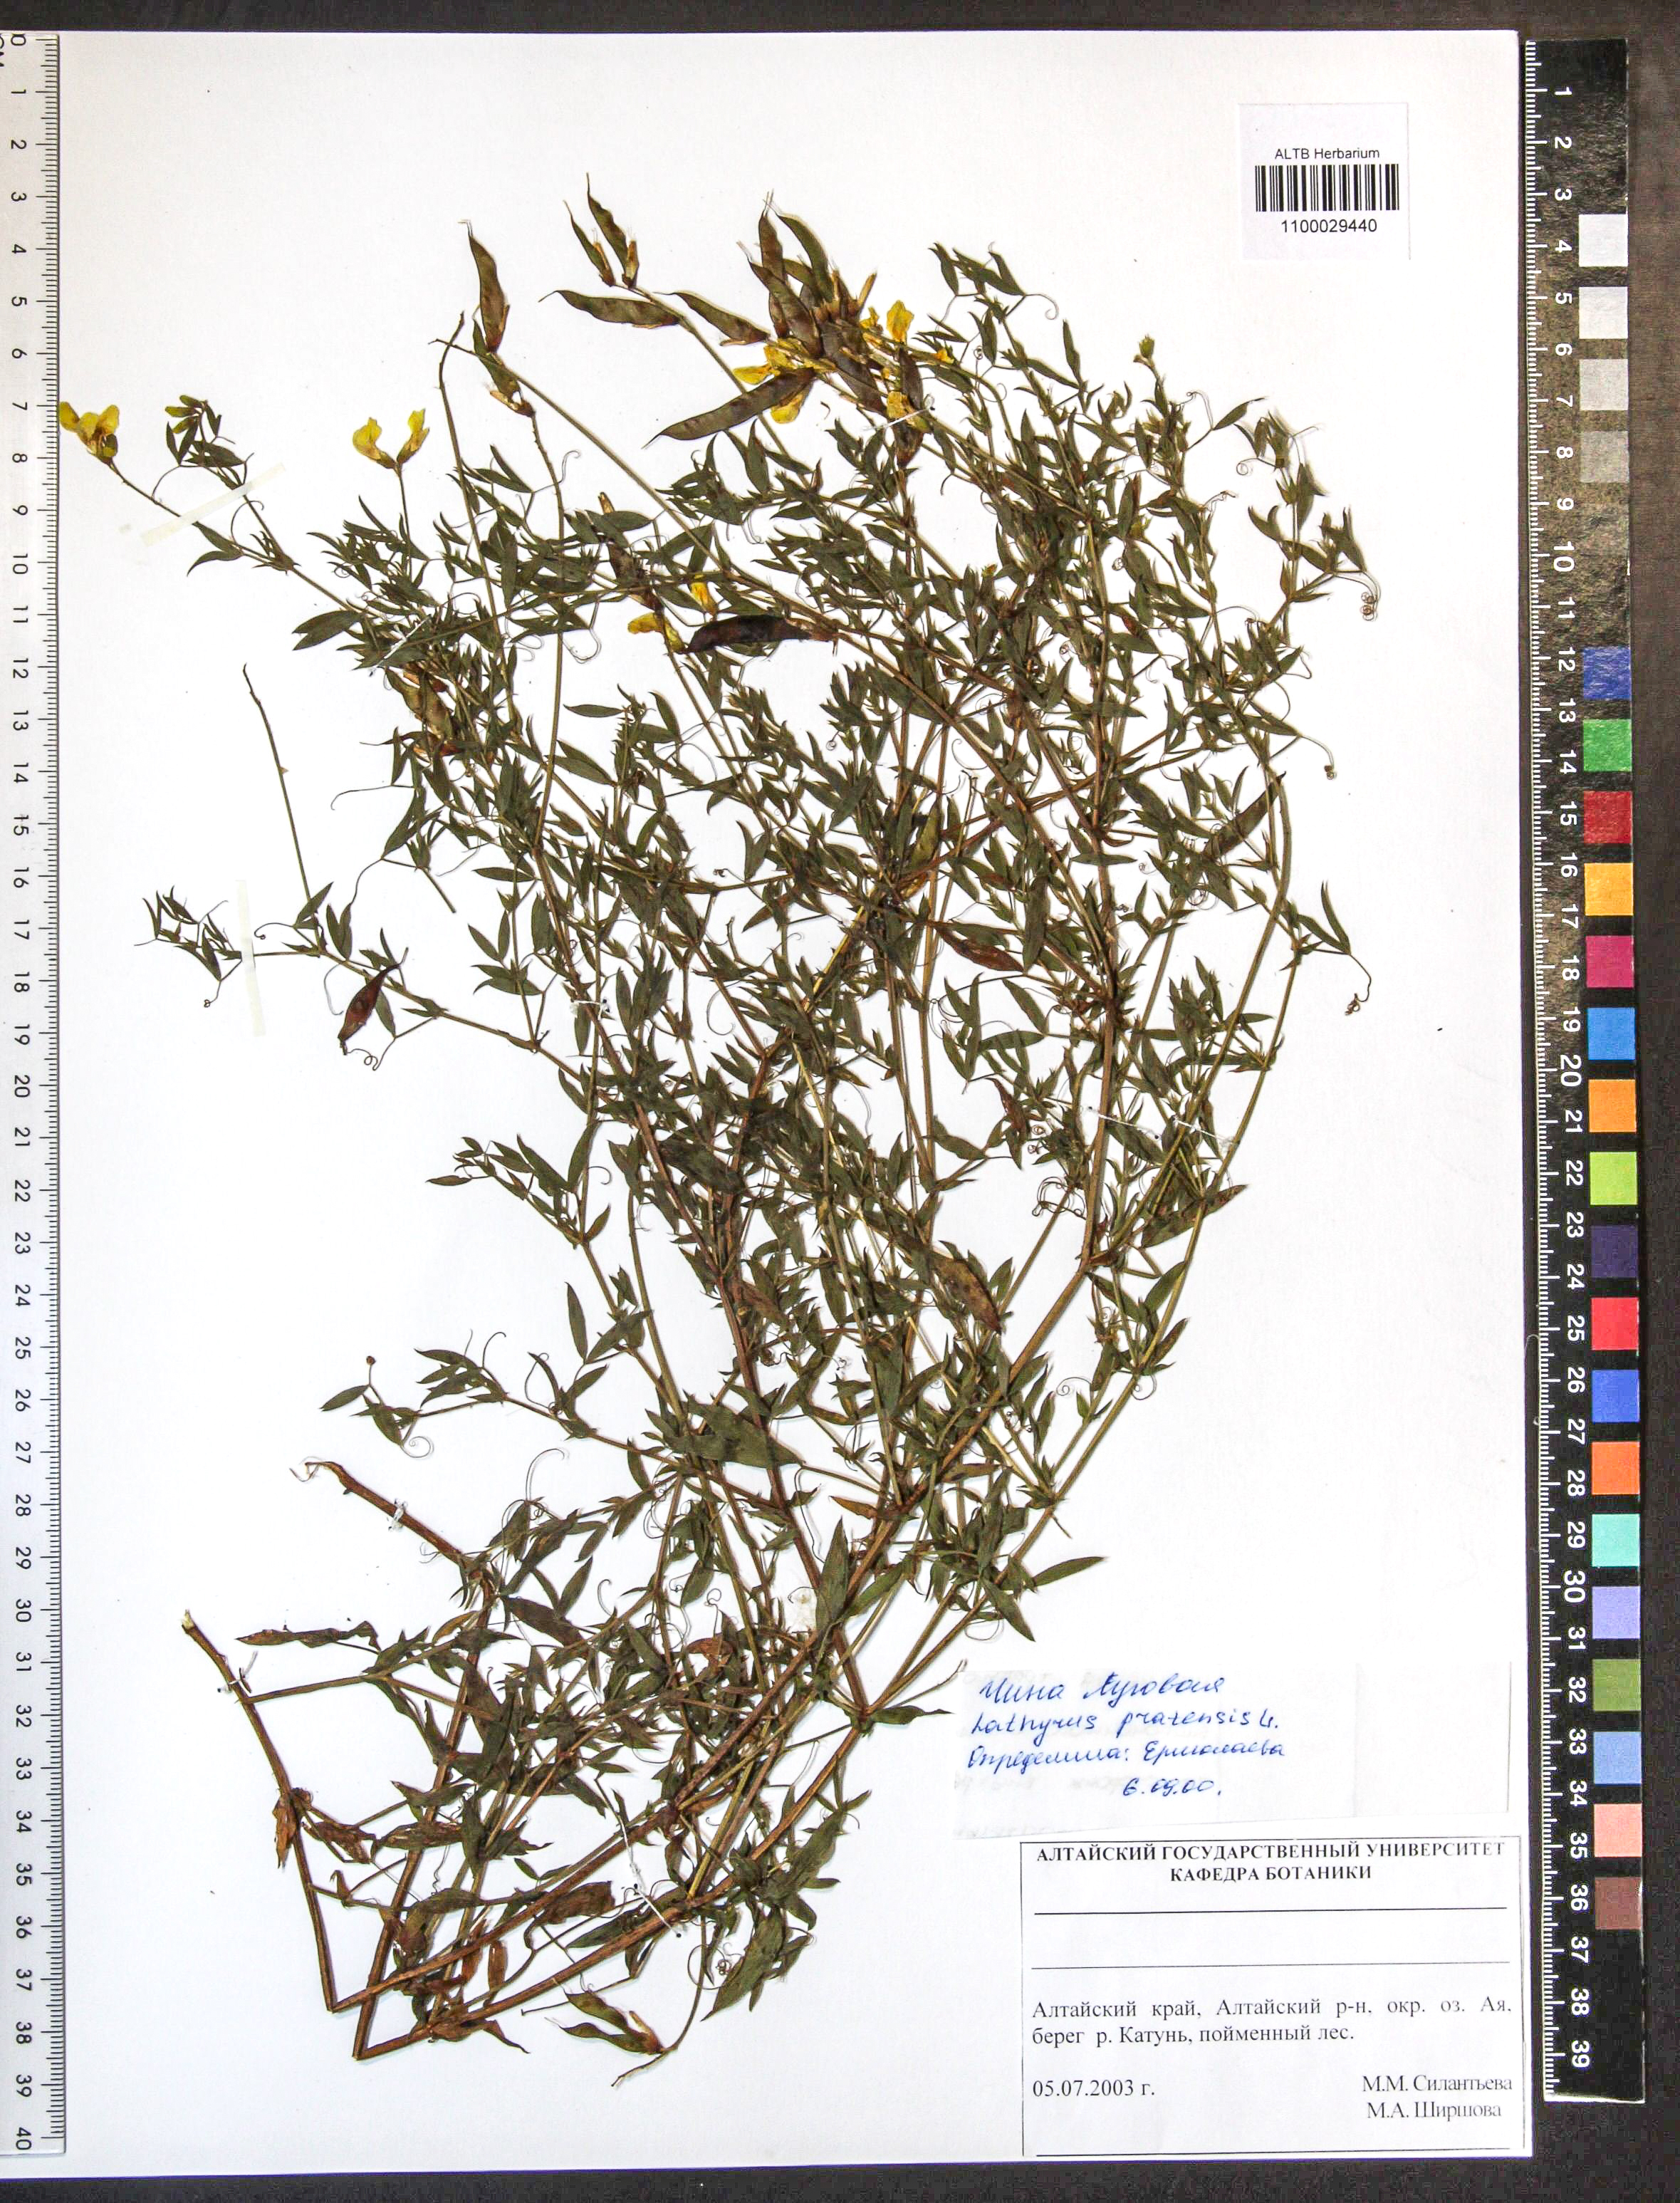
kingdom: Plantae
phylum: Tracheophyta
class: Magnoliopsida
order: Fabales
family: Fabaceae
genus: Lathyrus
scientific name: Lathyrus pratensis
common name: Meadow vetchling
